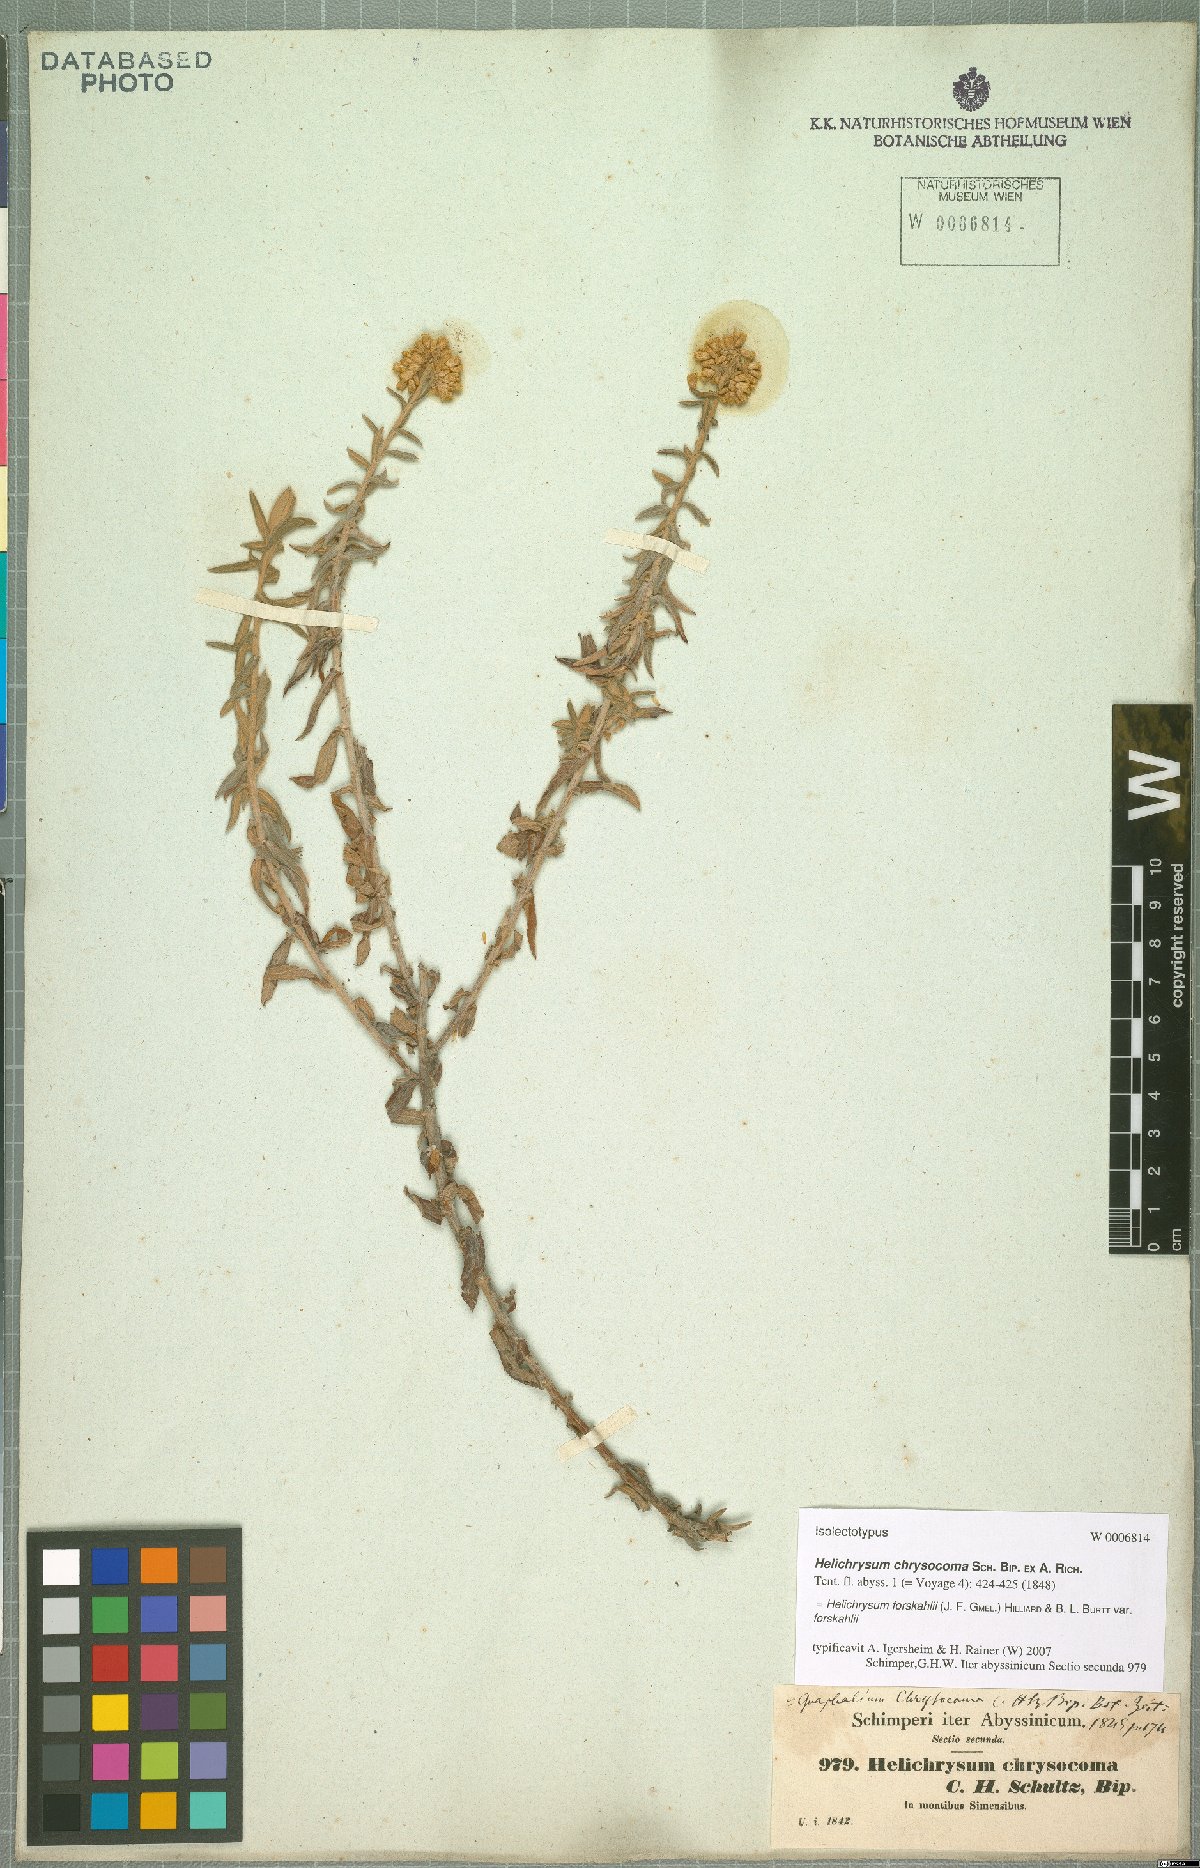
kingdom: Plantae
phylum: Tracheophyta
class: Magnoliopsida
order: Asterales
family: Asteraceae
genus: Helichrysum
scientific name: Helichrysum forskahlii
